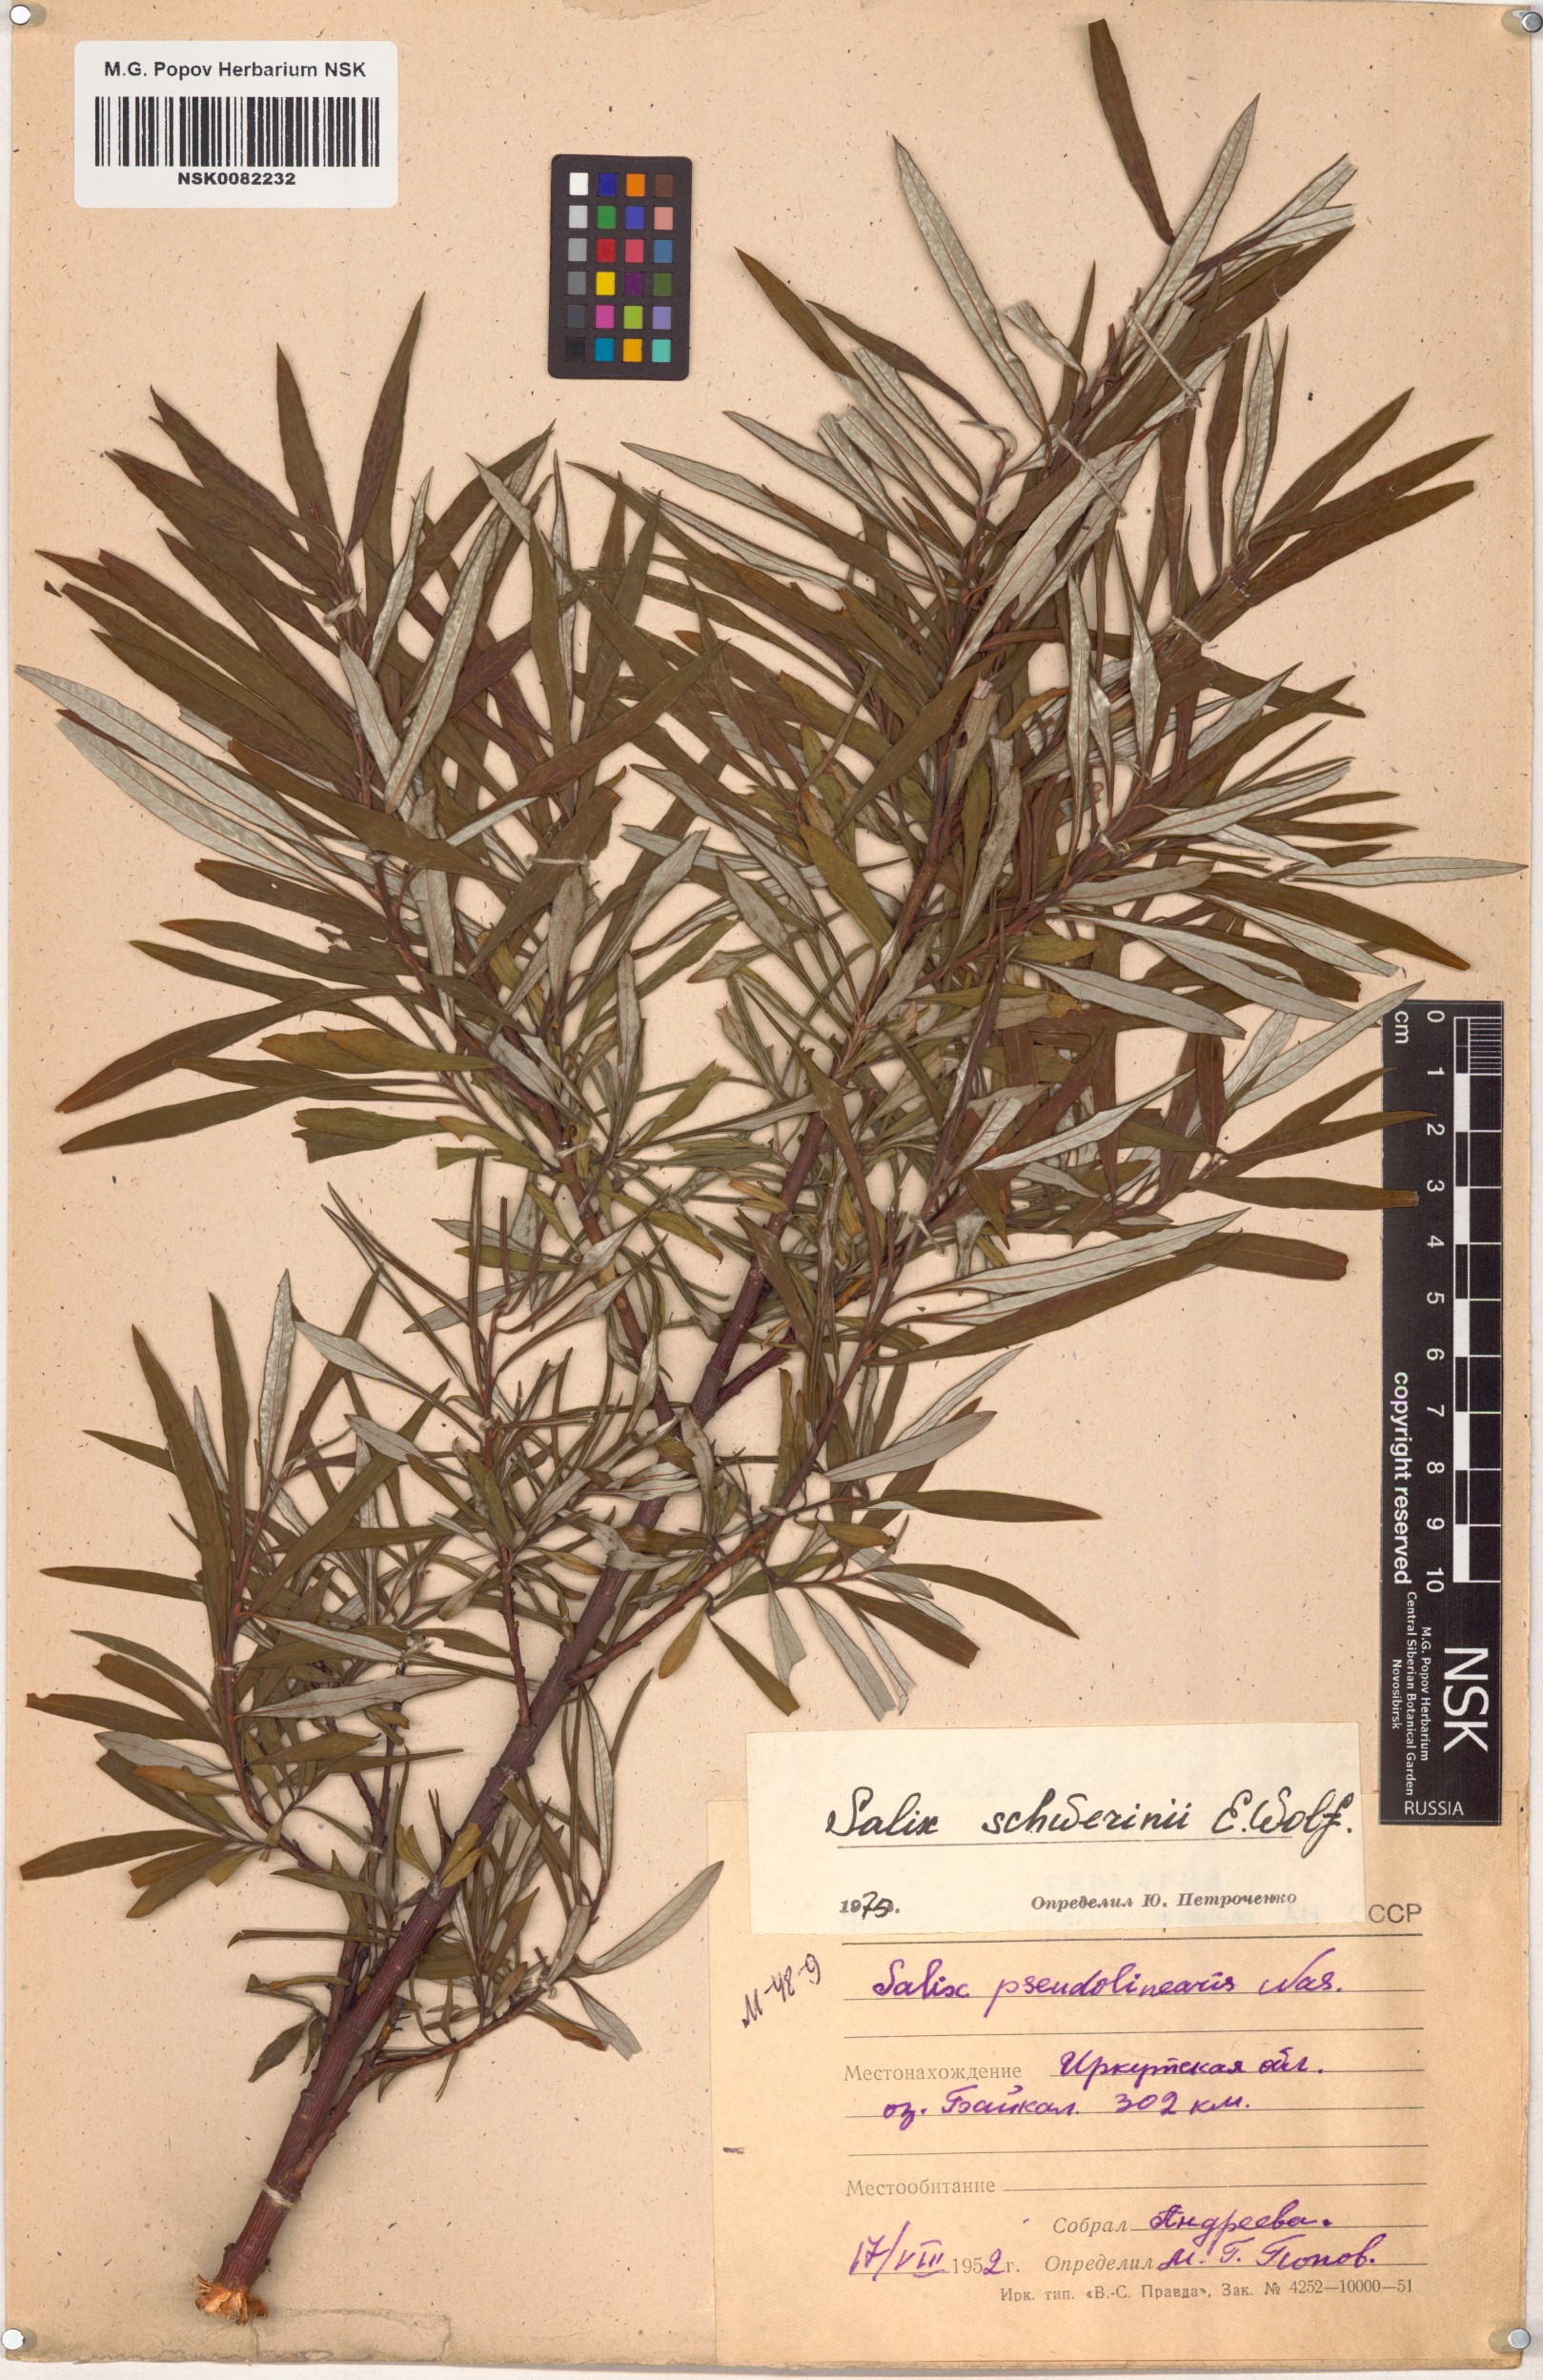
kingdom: Plantae
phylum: Tracheophyta
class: Magnoliopsida
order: Malpighiales
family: Salicaceae
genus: Salix
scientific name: Salix schwerinii
